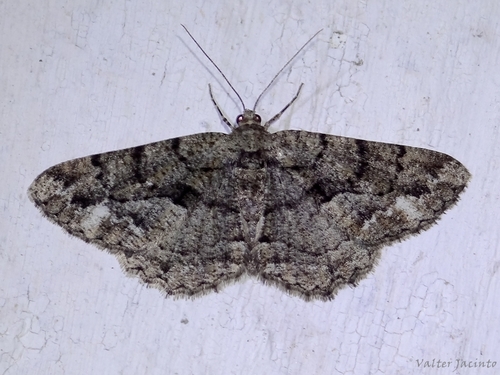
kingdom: Animalia
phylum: Arthropoda
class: Insecta
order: Lepidoptera
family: Geometridae
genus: Peribatodes
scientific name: Peribatodes ilicaria
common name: Lydd beauty
